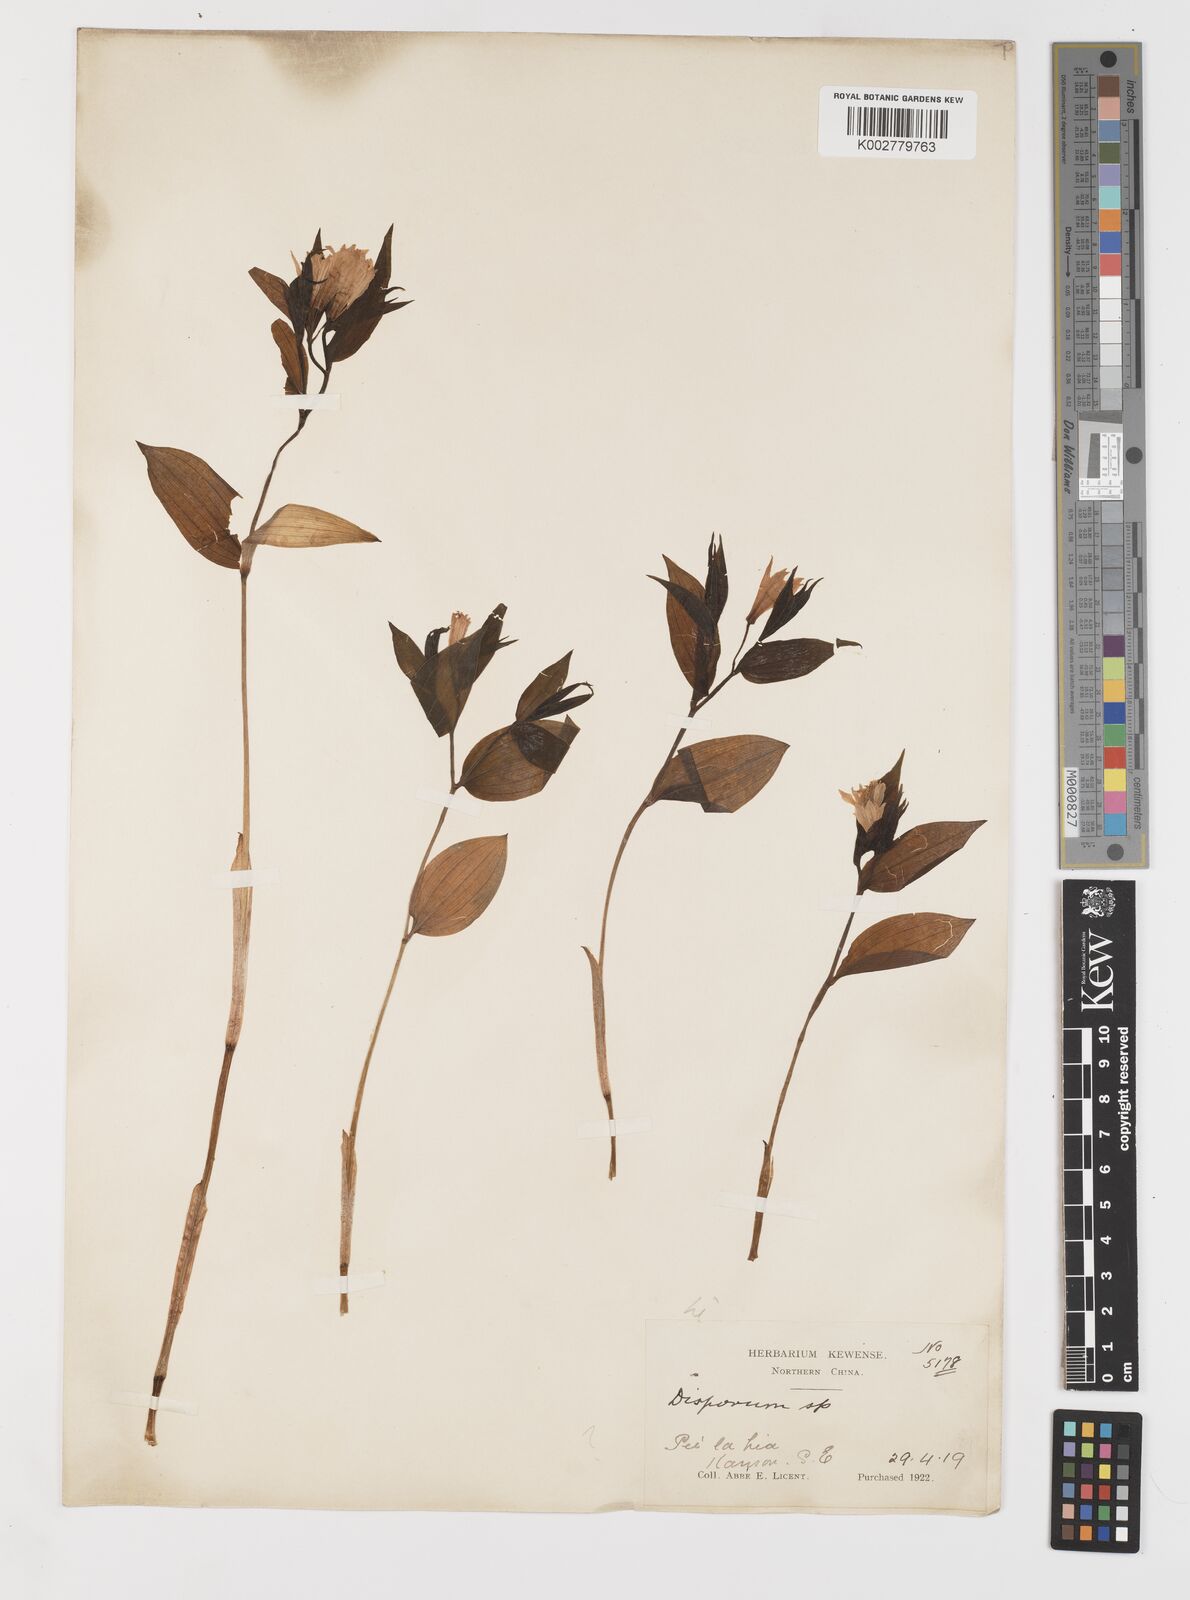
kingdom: Plantae
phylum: Tracheophyta
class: Liliopsida
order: Liliales
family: Colchicaceae
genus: Disporum
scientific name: Disporum sessile
